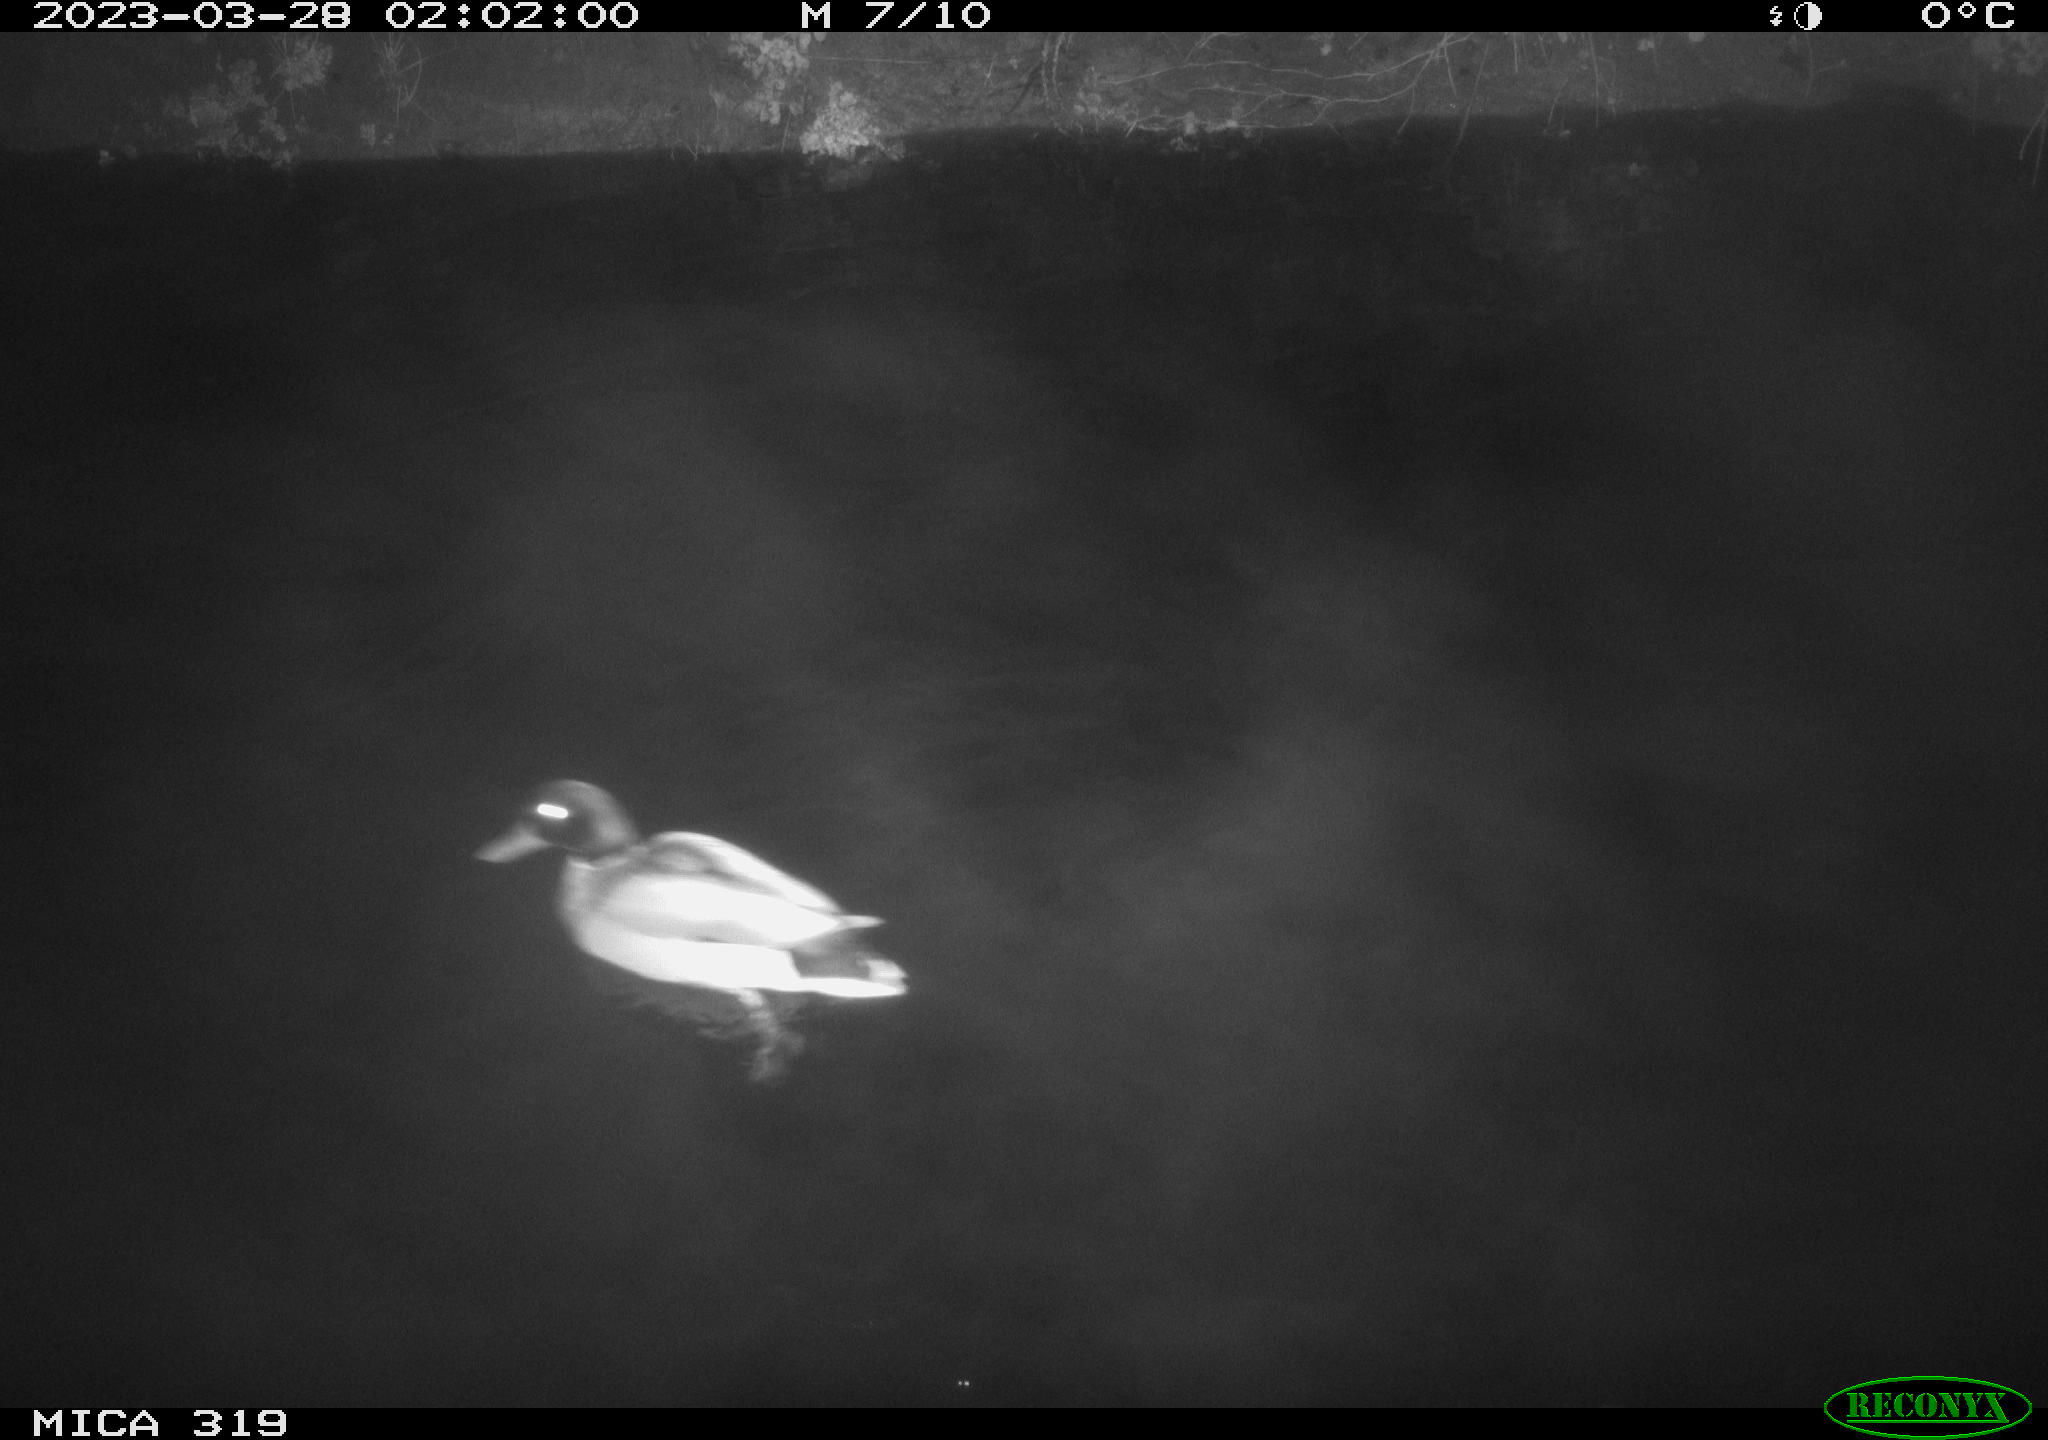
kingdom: Animalia
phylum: Chordata
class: Aves
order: Anseriformes
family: Anatidae
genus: Anas
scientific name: Anas
